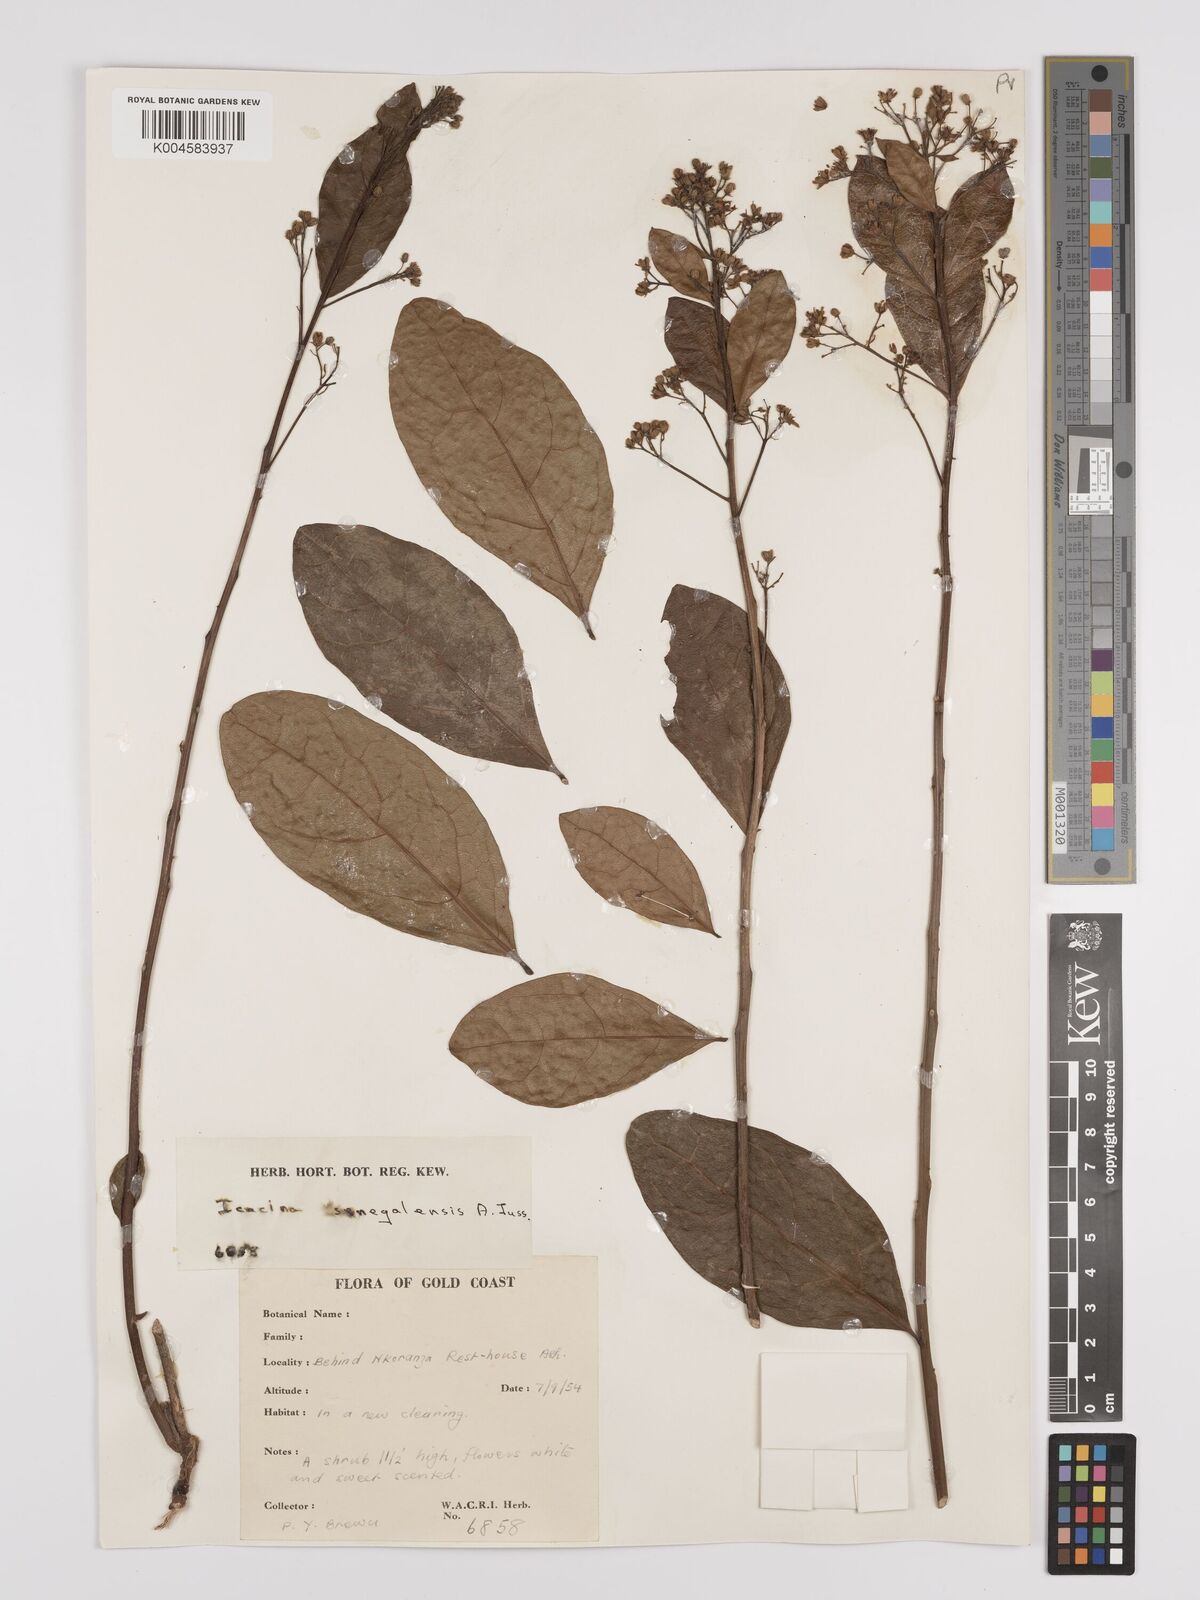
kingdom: Plantae
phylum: Tracheophyta
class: Magnoliopsida
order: Icacinales
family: Icacinaceae
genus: Icacina
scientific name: Icacina oliviformis
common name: False yam
